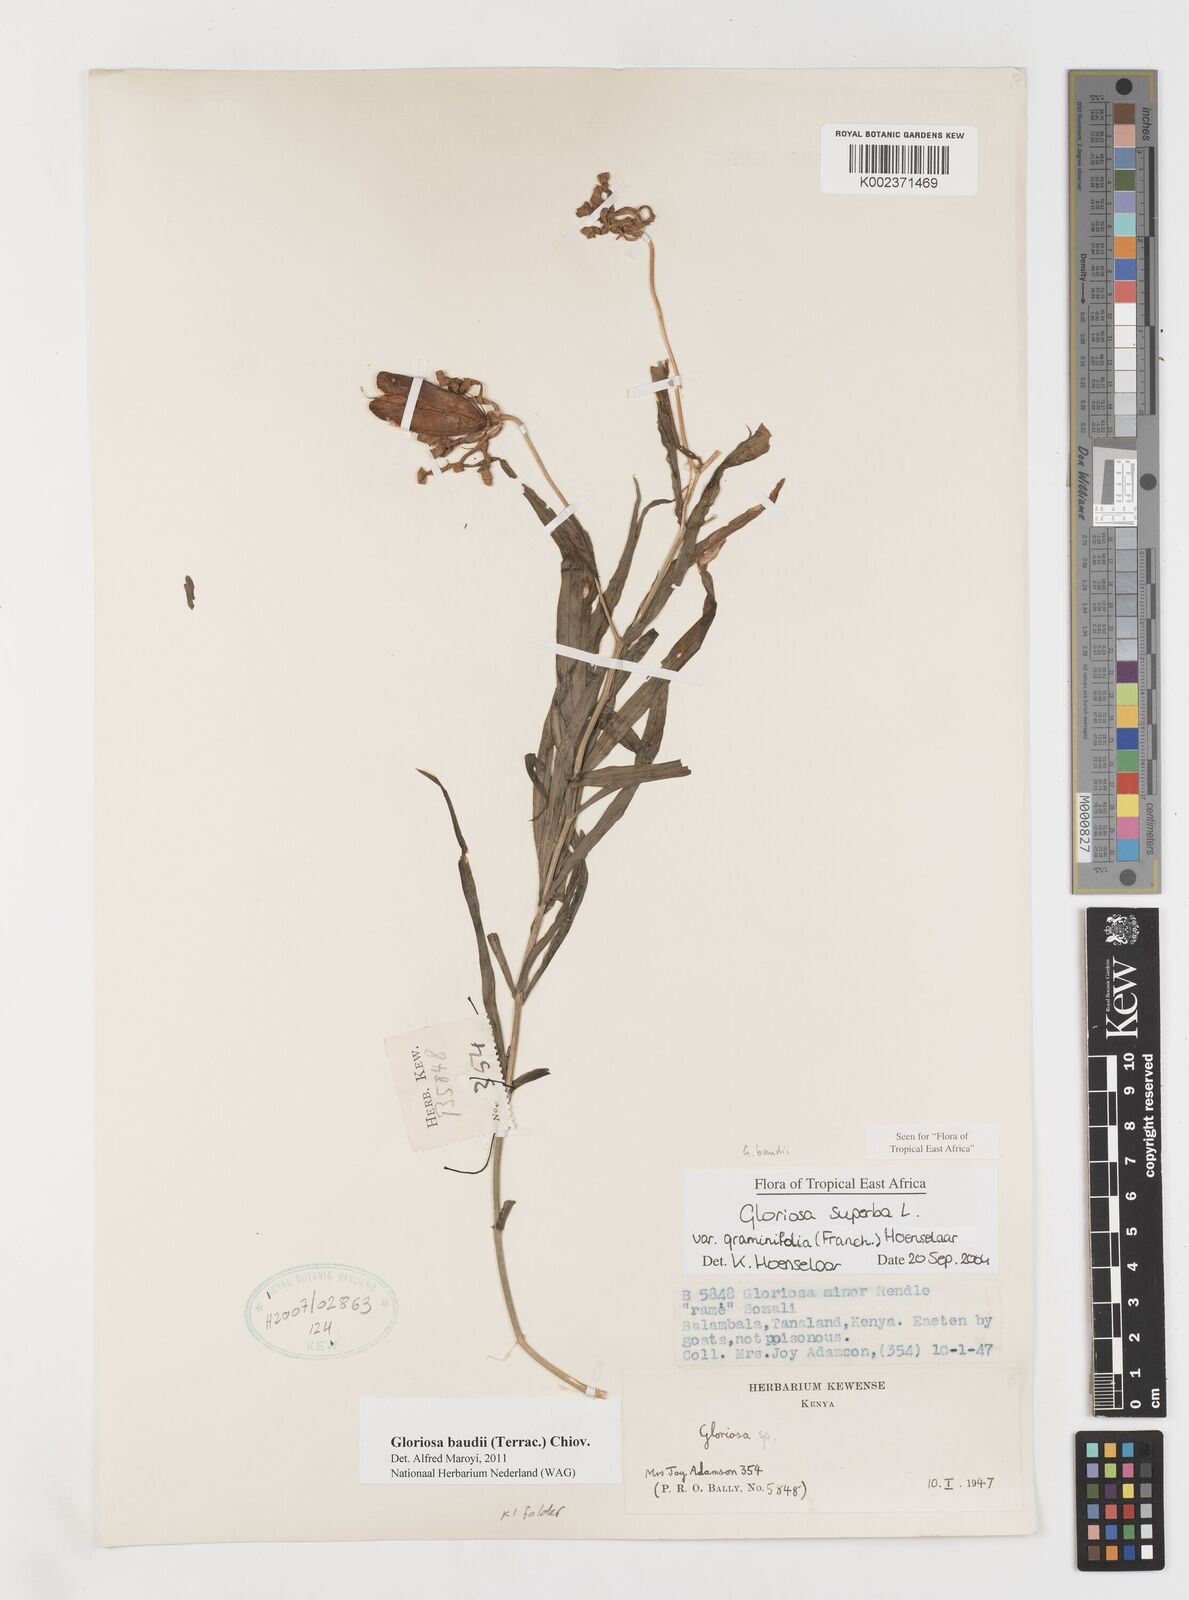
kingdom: Plantae
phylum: Tracheophyta
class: Liliopsida
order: Liliales
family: Colchicaceae
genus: Gloriosa
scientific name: Gloriosa baudii
